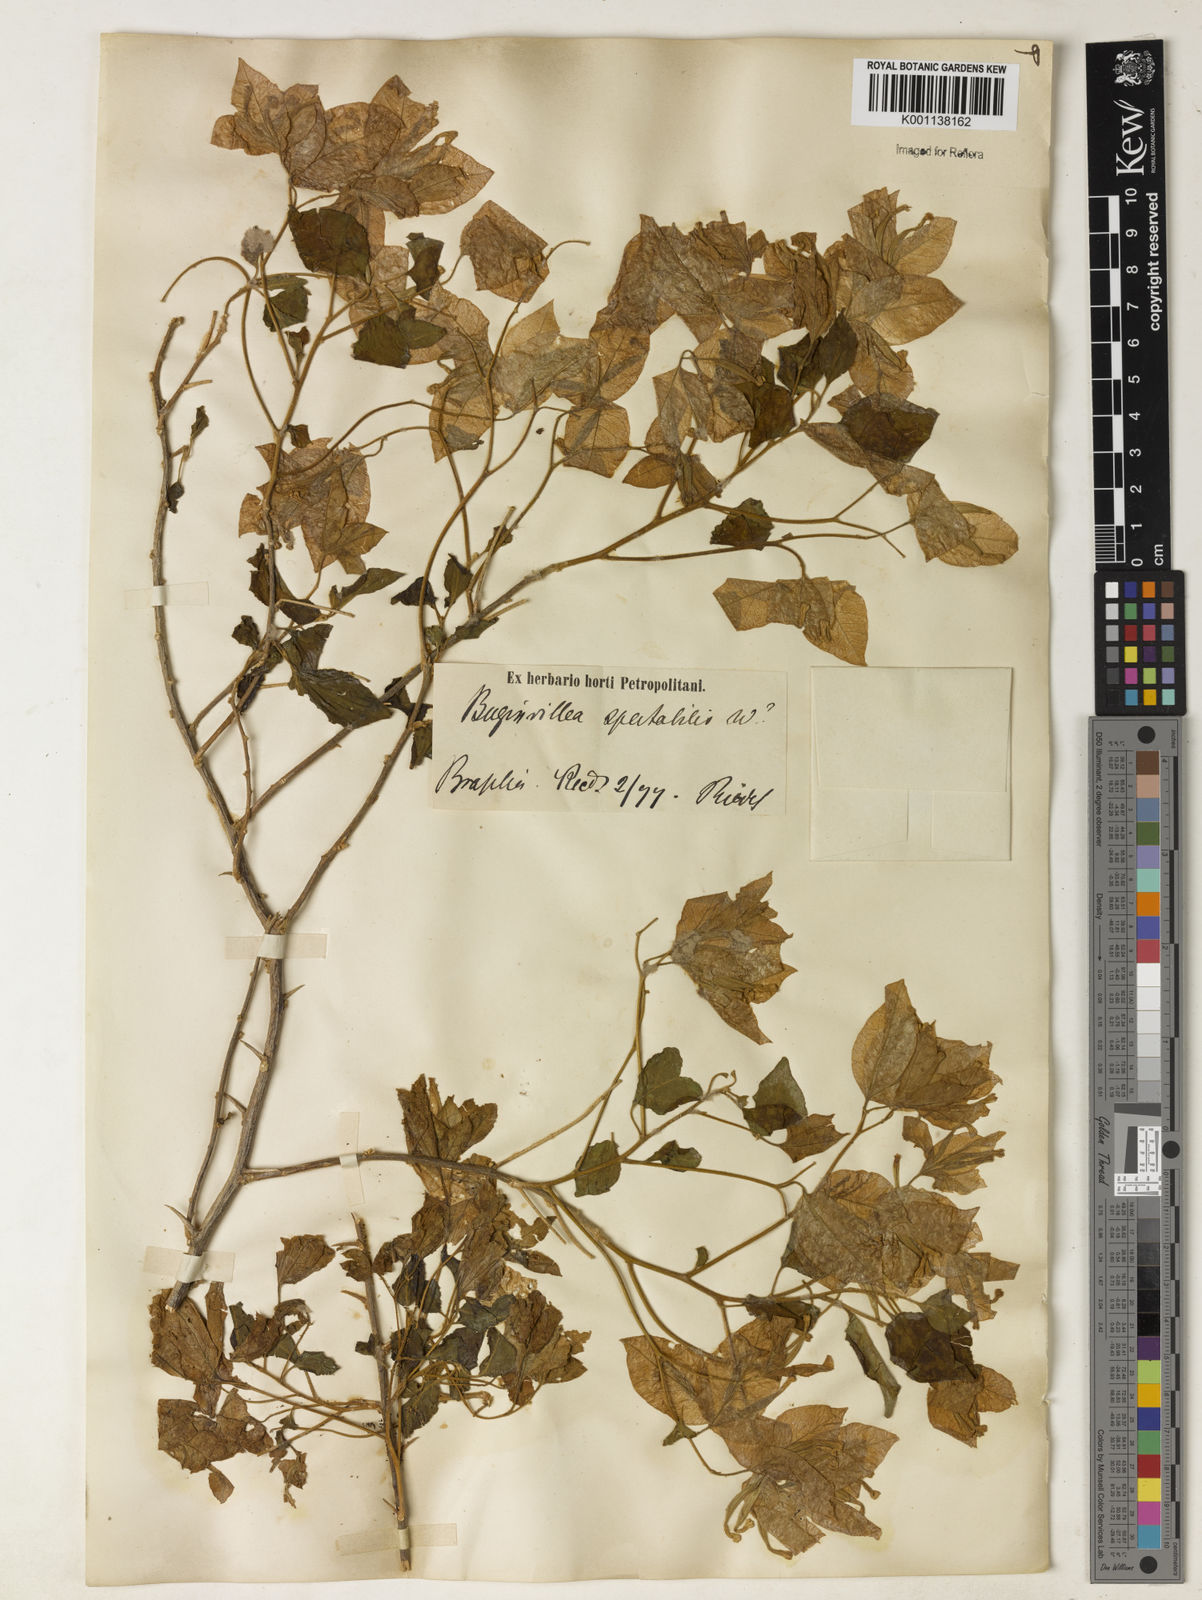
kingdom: Plantae
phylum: Tracheophyta
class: Magnoliopsida
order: Caryophyllales
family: Nyctaginaceae
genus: Bougainvillea
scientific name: Bougainvillea spectabilis
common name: Great bougainvillea
